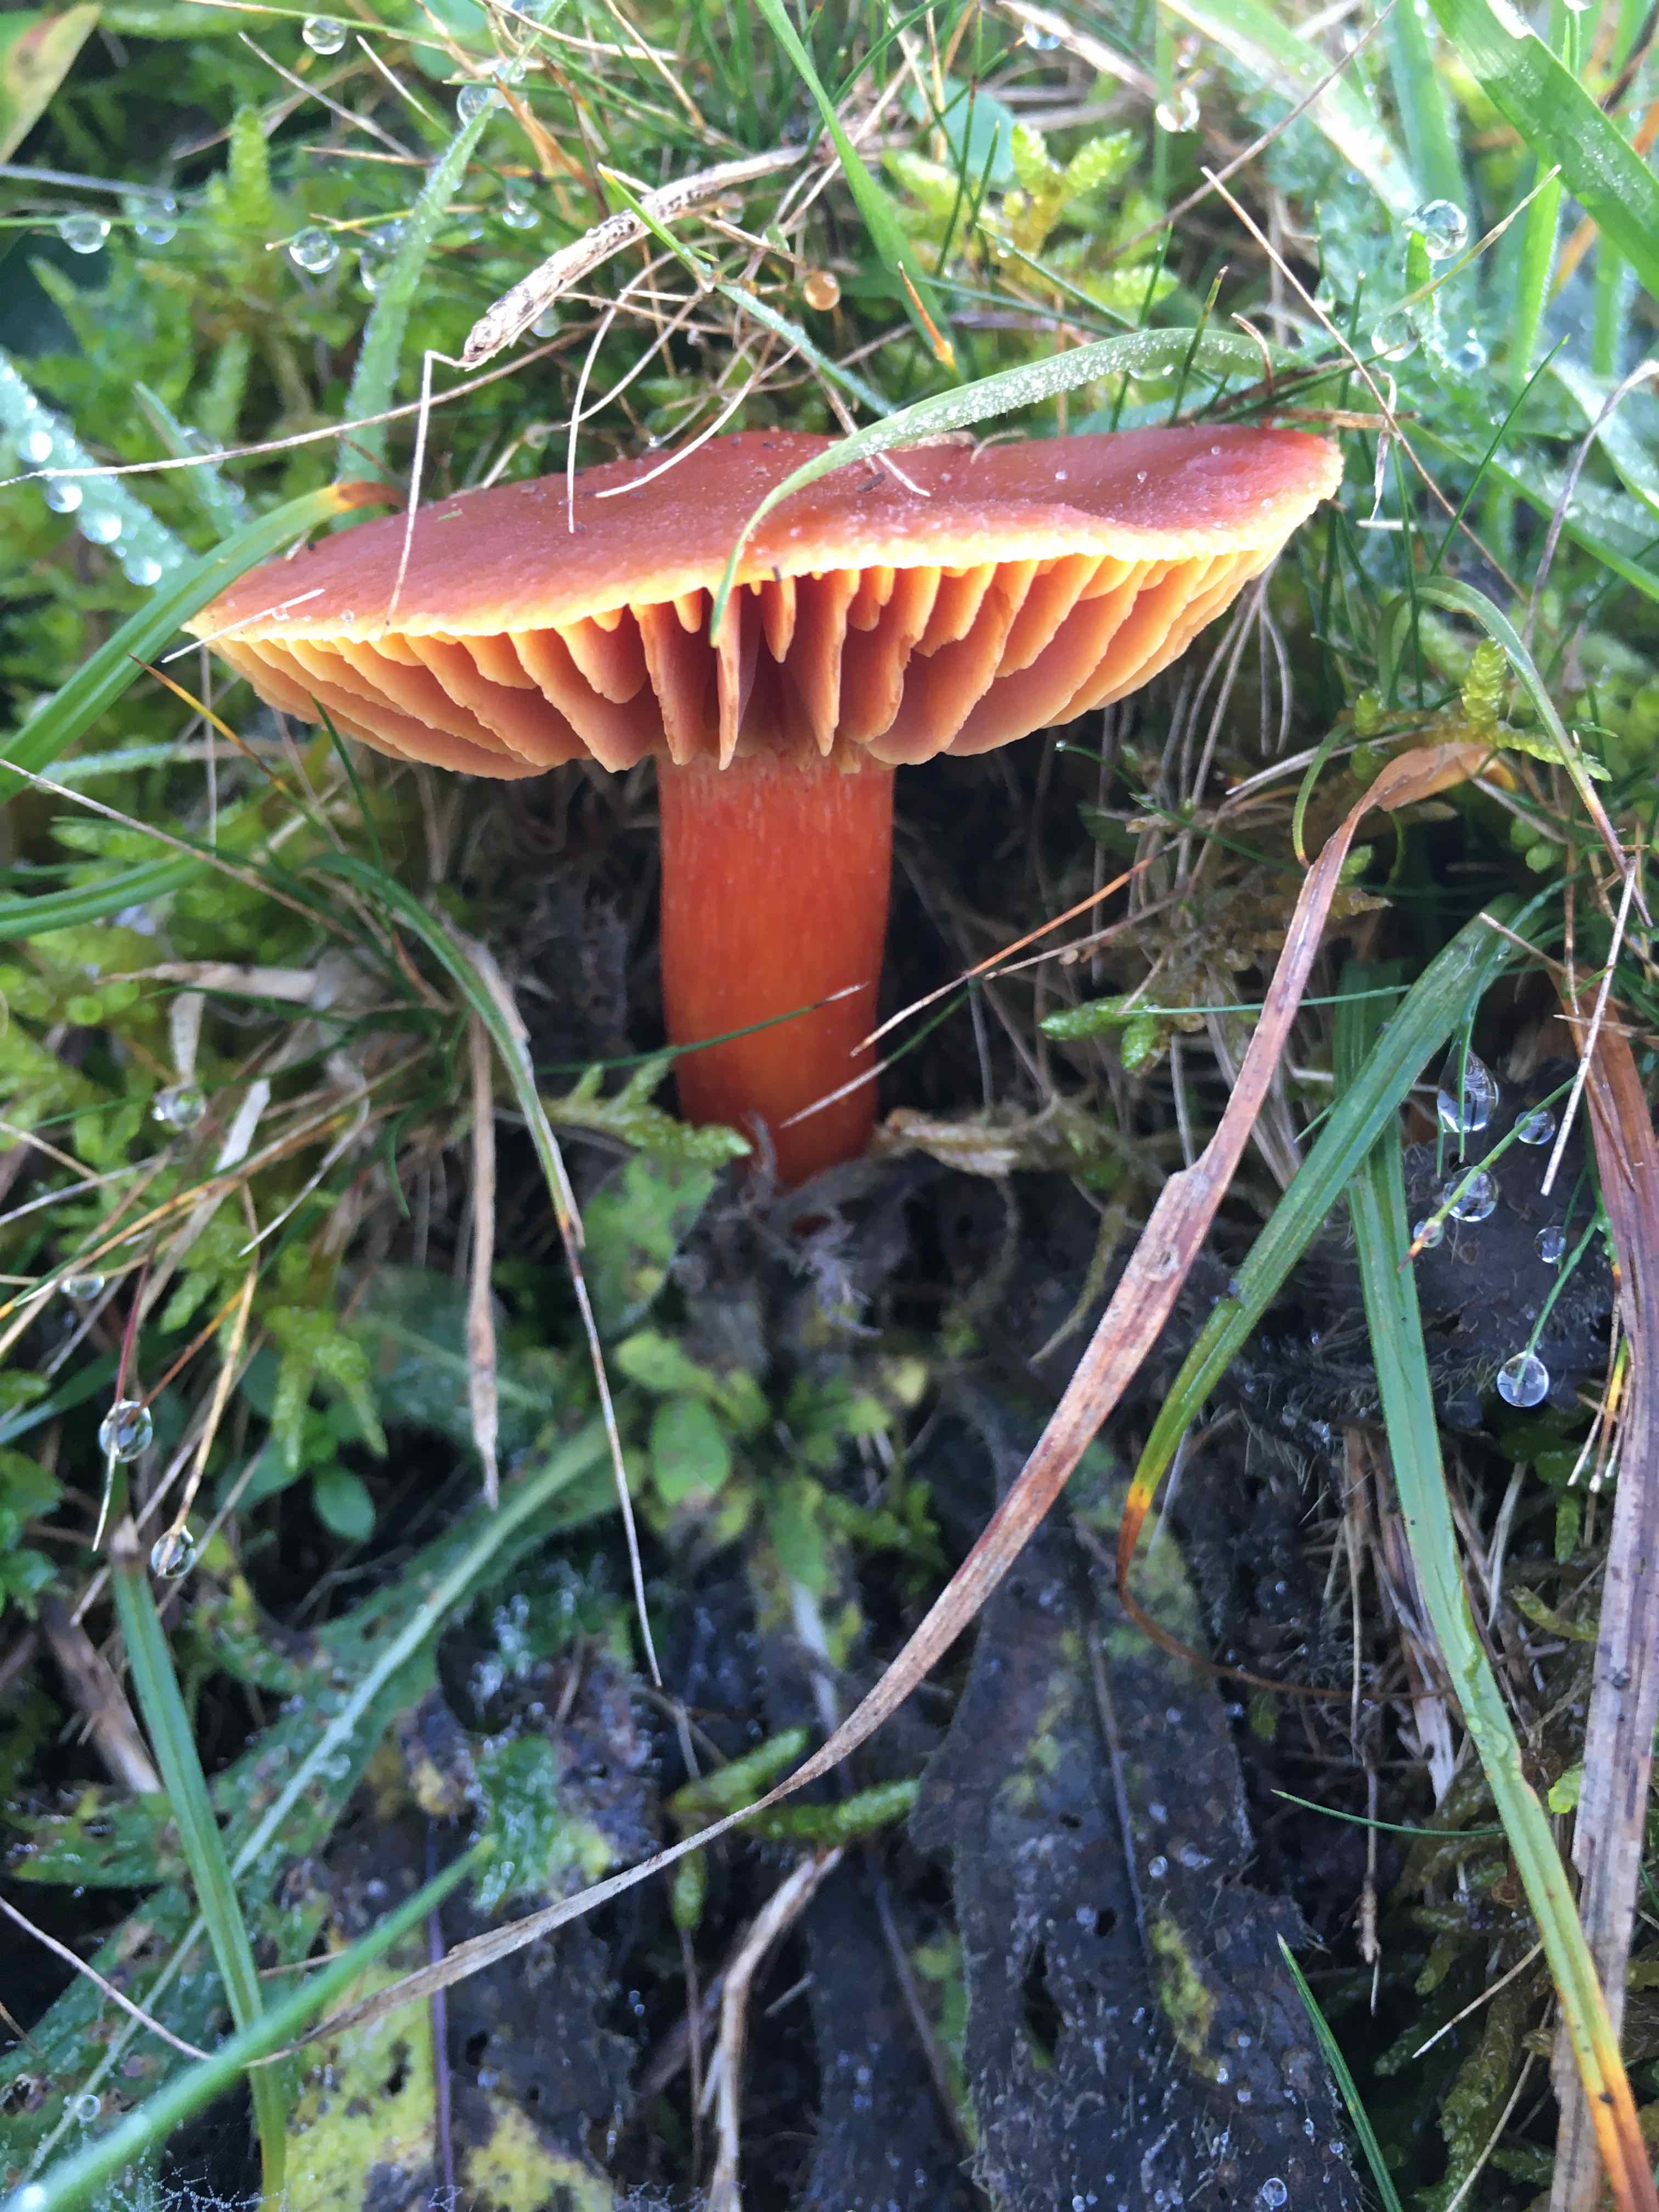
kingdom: Fungi
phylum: Basidiomycota
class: Agaricomycetes
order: Agaricales
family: Hygrophoraceae
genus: Hygrocybe
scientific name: Hygrocybe punicea
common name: skarlagen-vokshat
